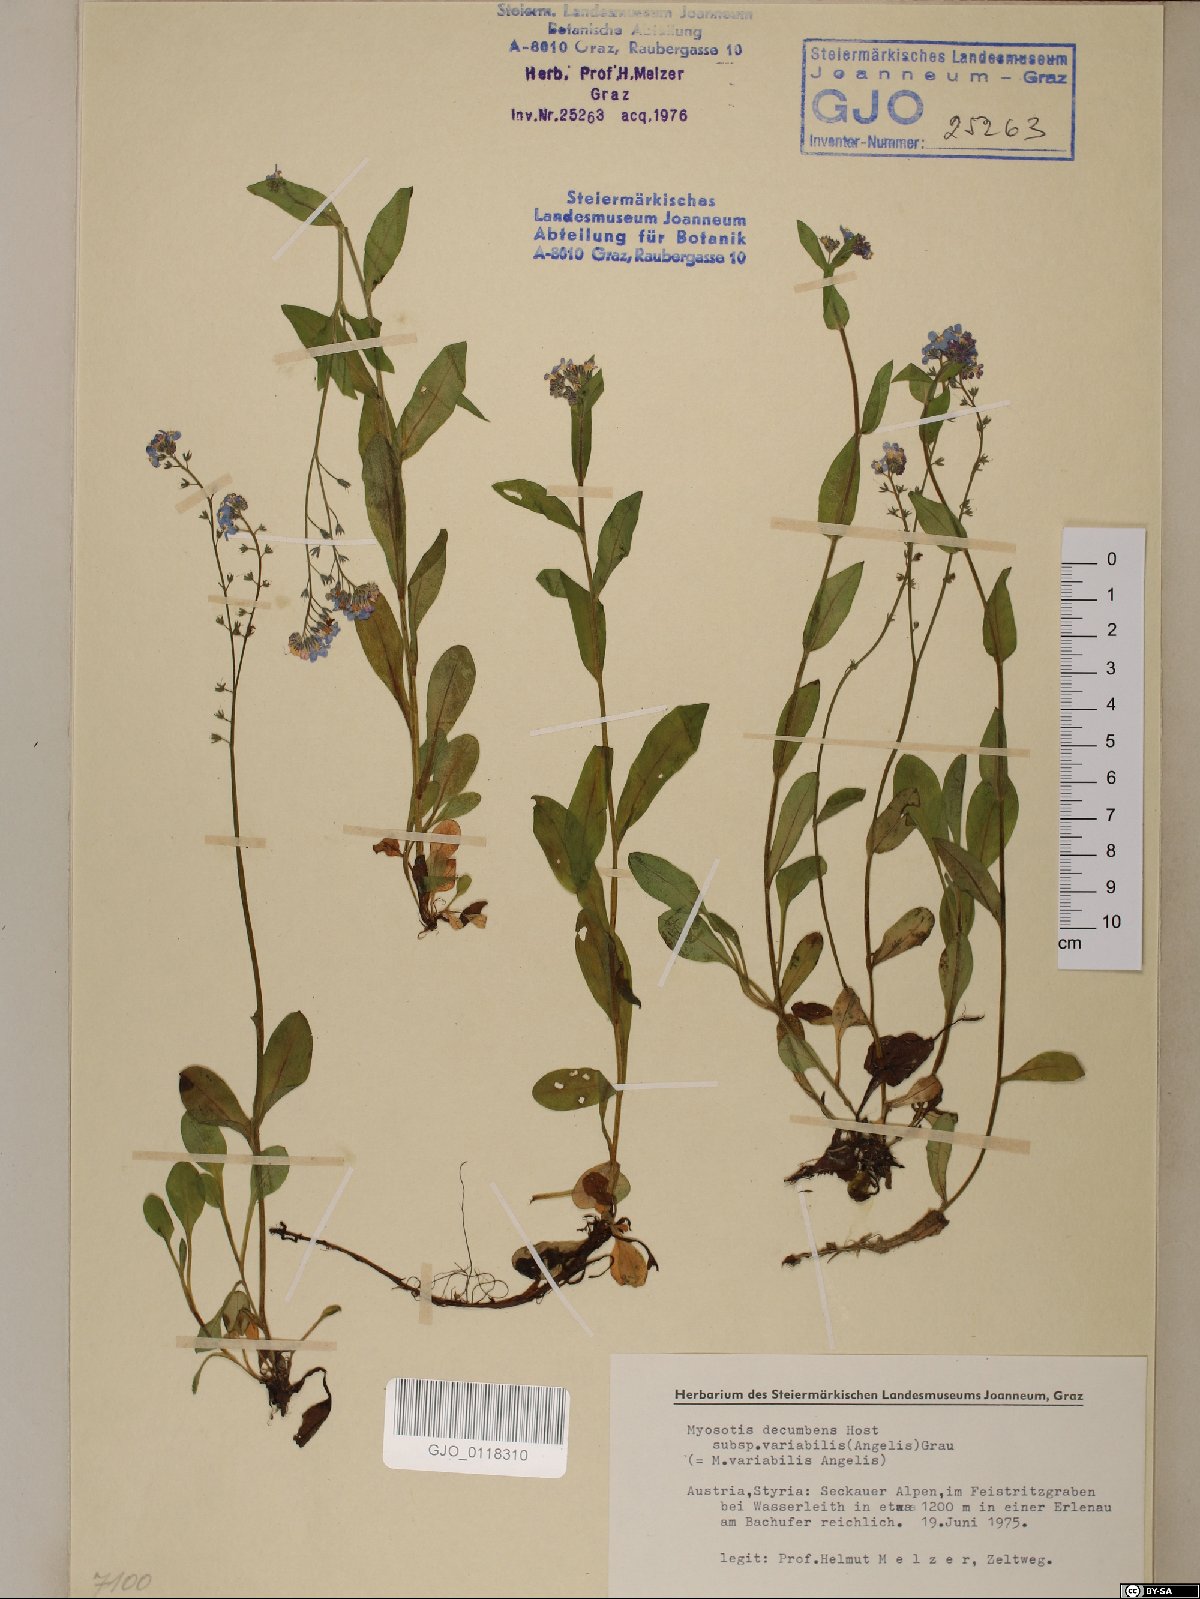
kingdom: Plantae
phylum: Tracheophyta
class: Magnoliopsida
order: Boraginales
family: Boraginaceae
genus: Myosotis
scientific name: Myosotis decumbens
